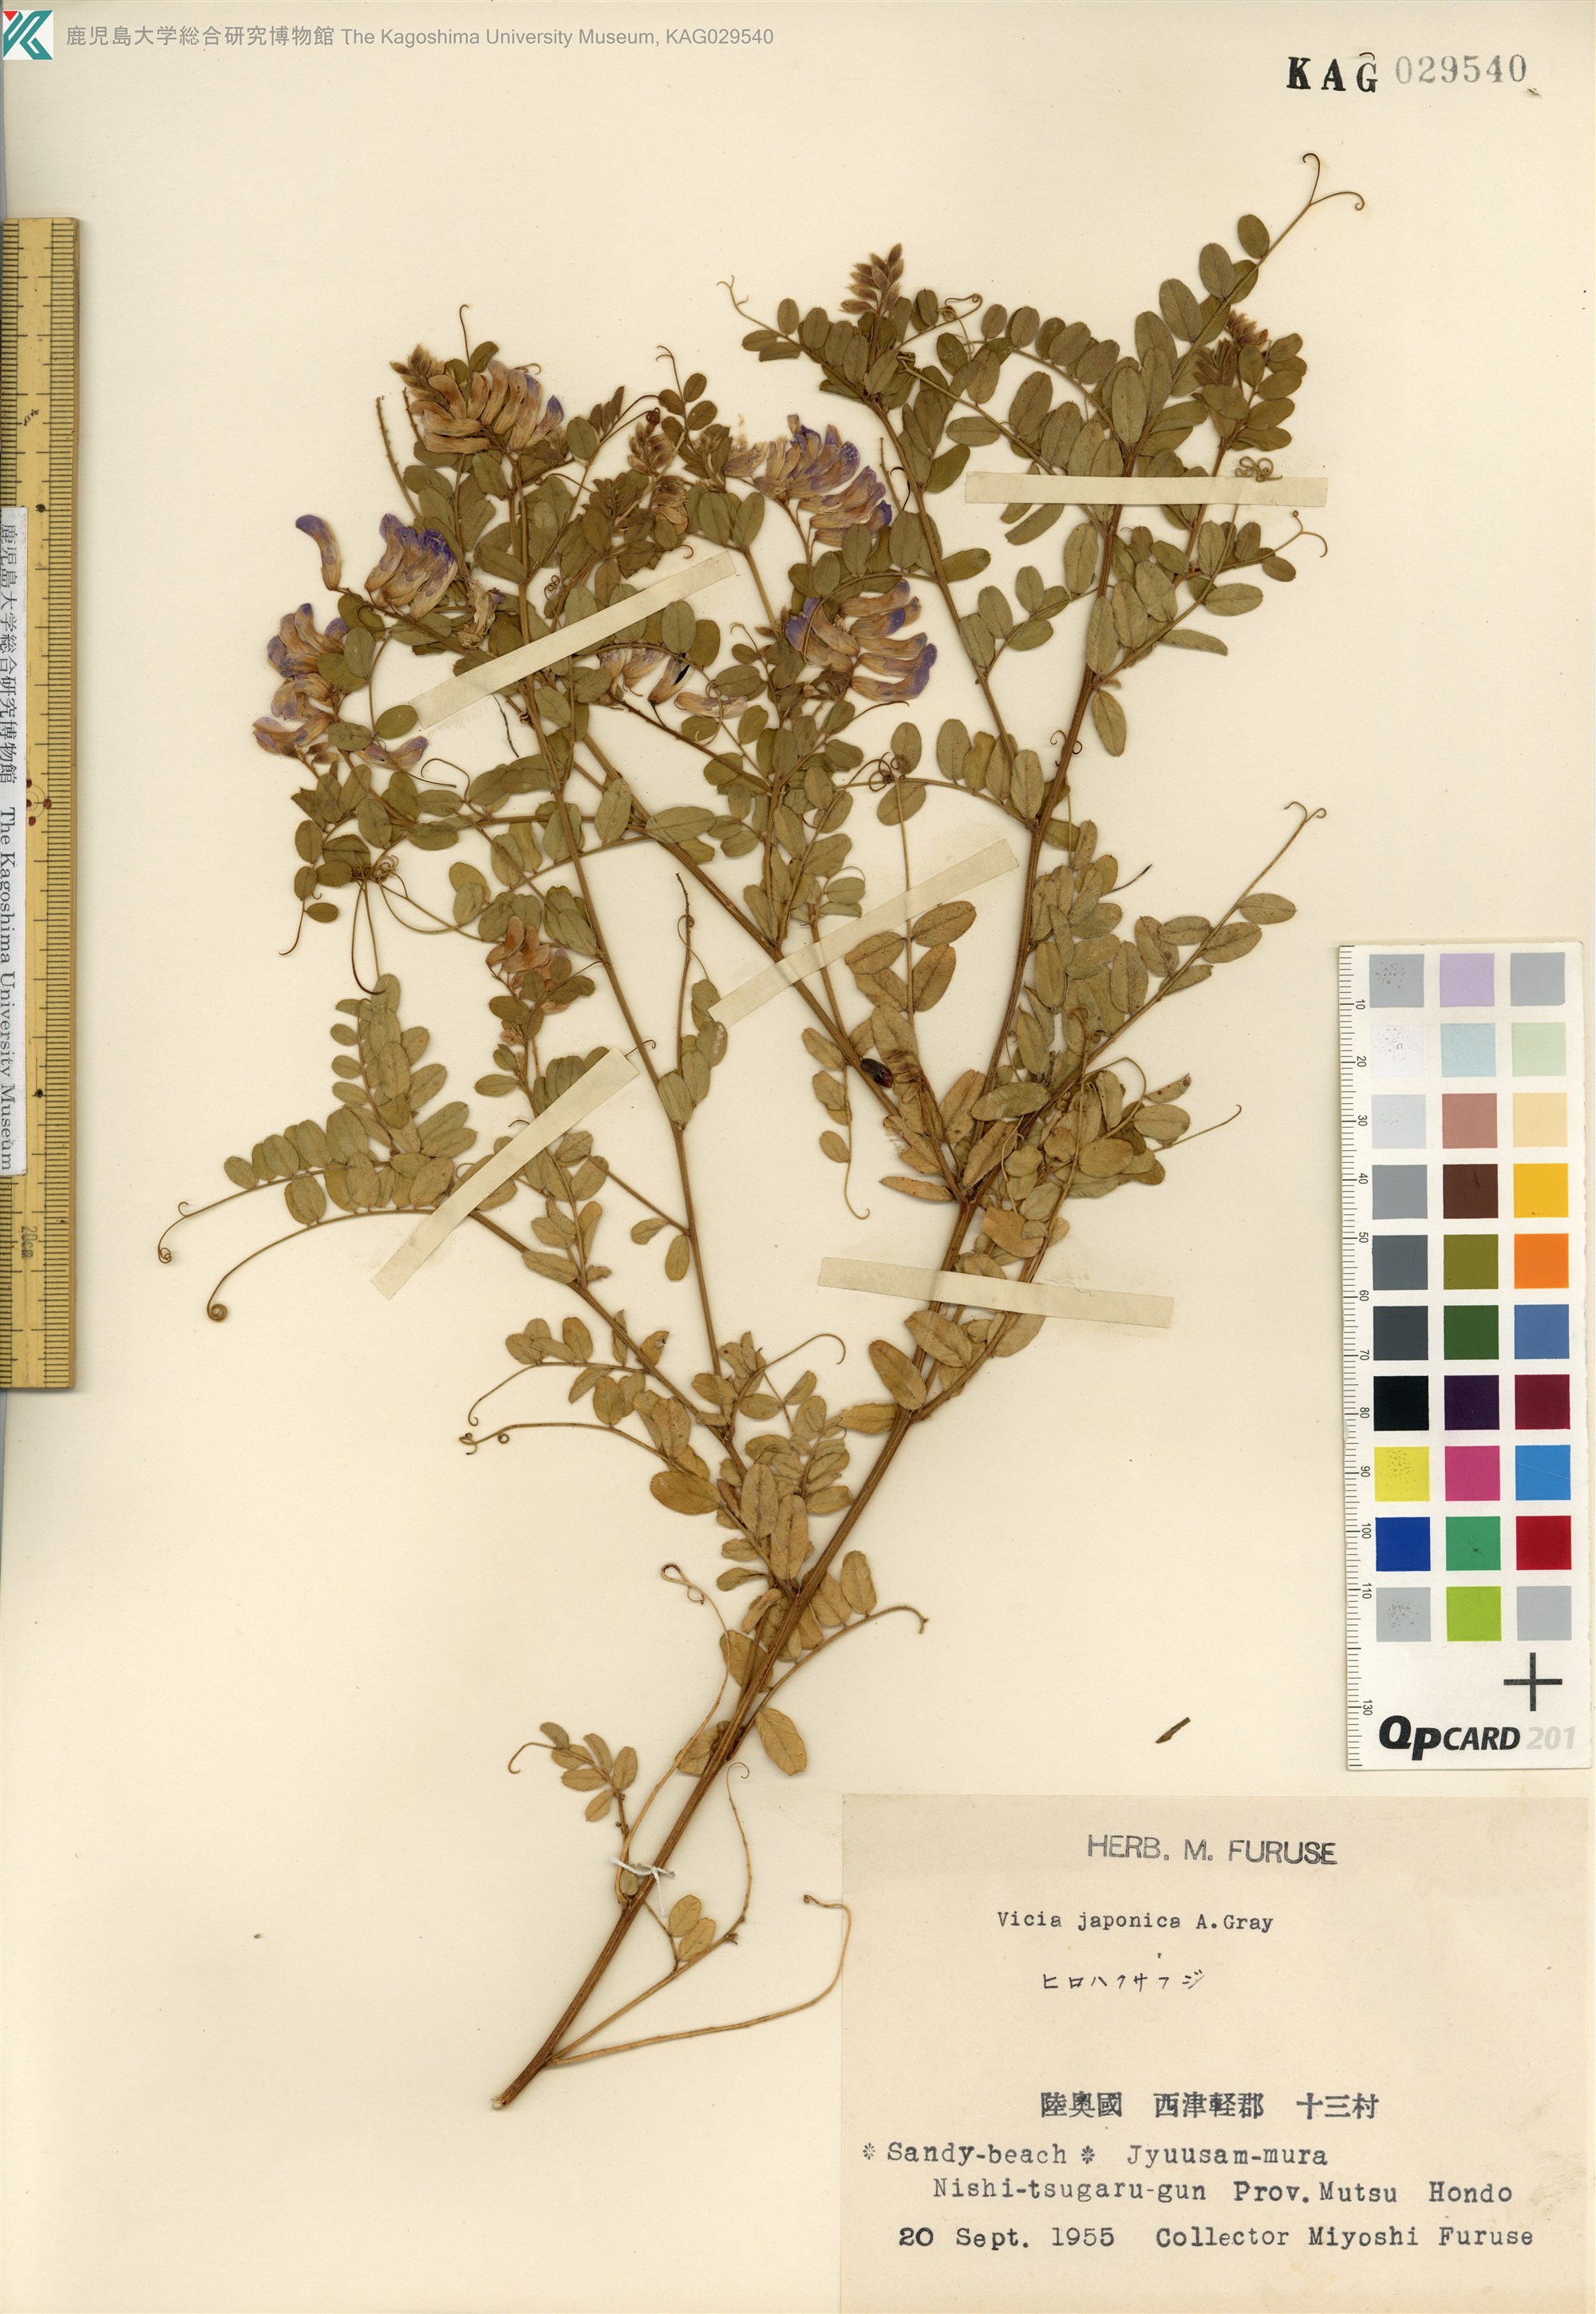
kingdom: Plantae
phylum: Tracheophyta
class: Magnoliopsida
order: Fabales
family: Fabaceae
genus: Vicia
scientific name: Vicia japonica
